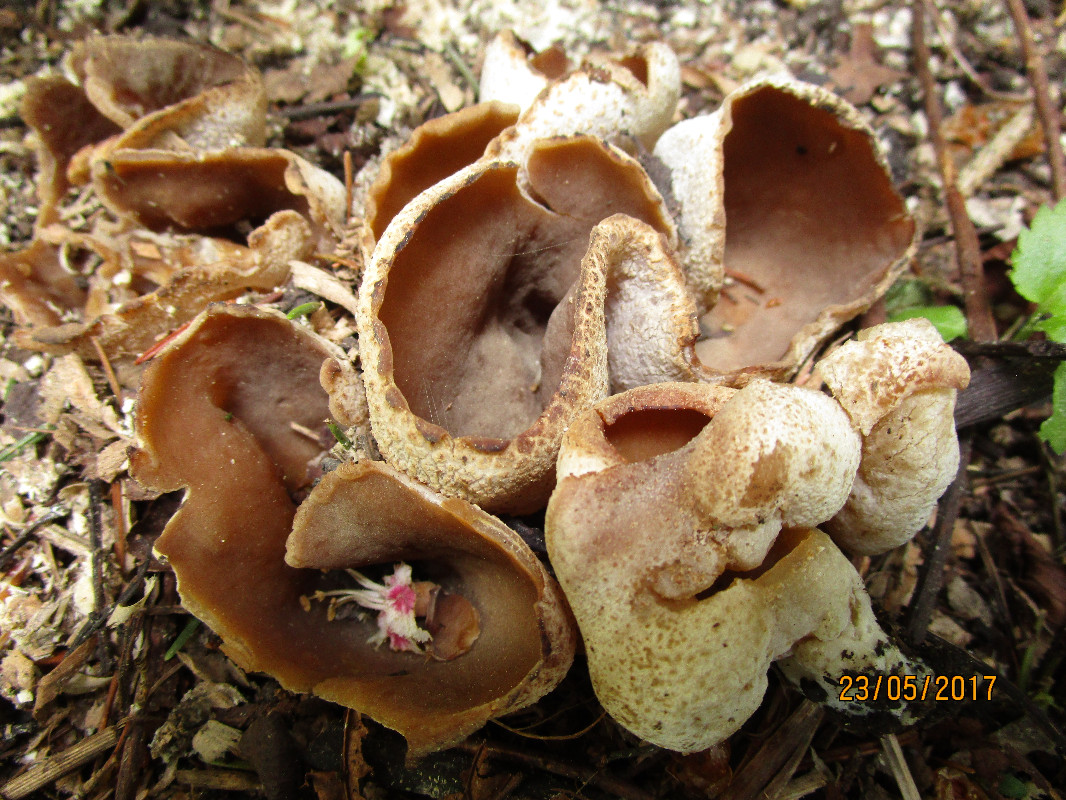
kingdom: Fungi
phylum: Ascomycota
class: Pezizomycetes
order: Pezizales
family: Pezizaceae
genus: Peziza
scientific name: Peziza
